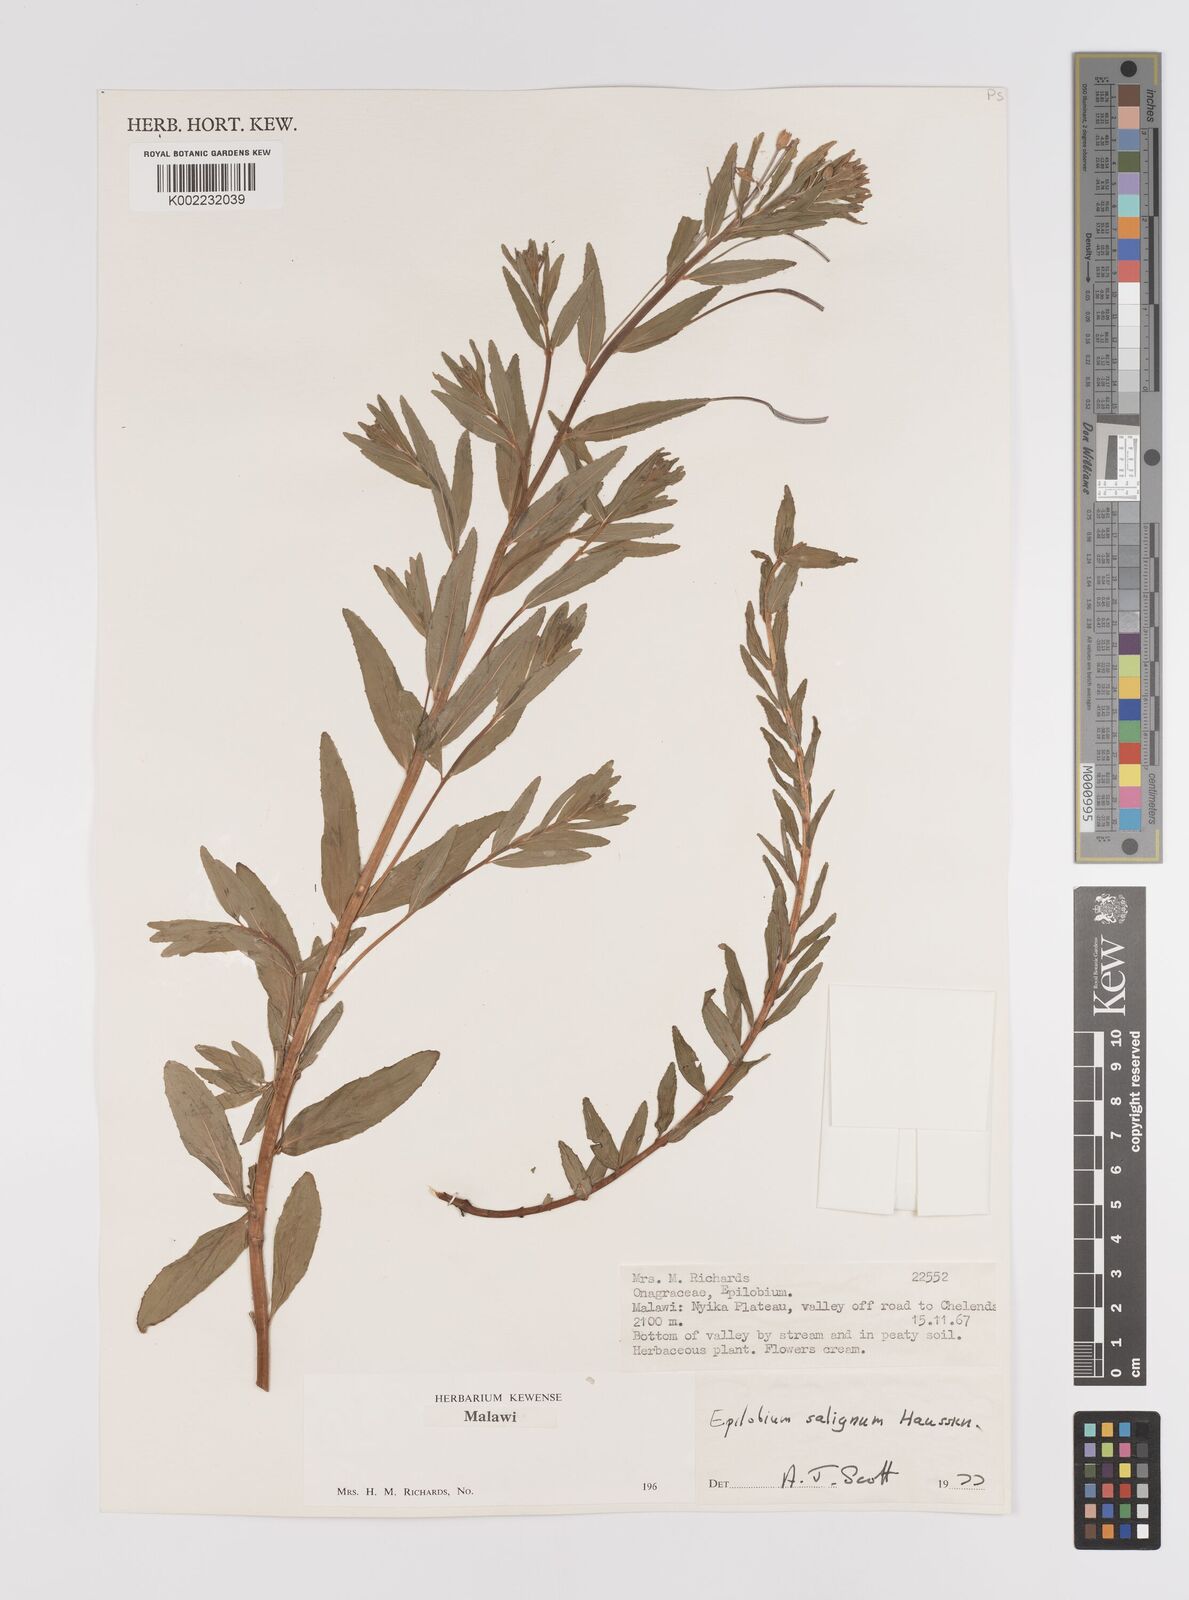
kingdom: Plantae
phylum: Tracheophyta
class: Magnoliopsida
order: Myrtales
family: Onagraceae
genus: Epilobium
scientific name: Epilobium salignum
